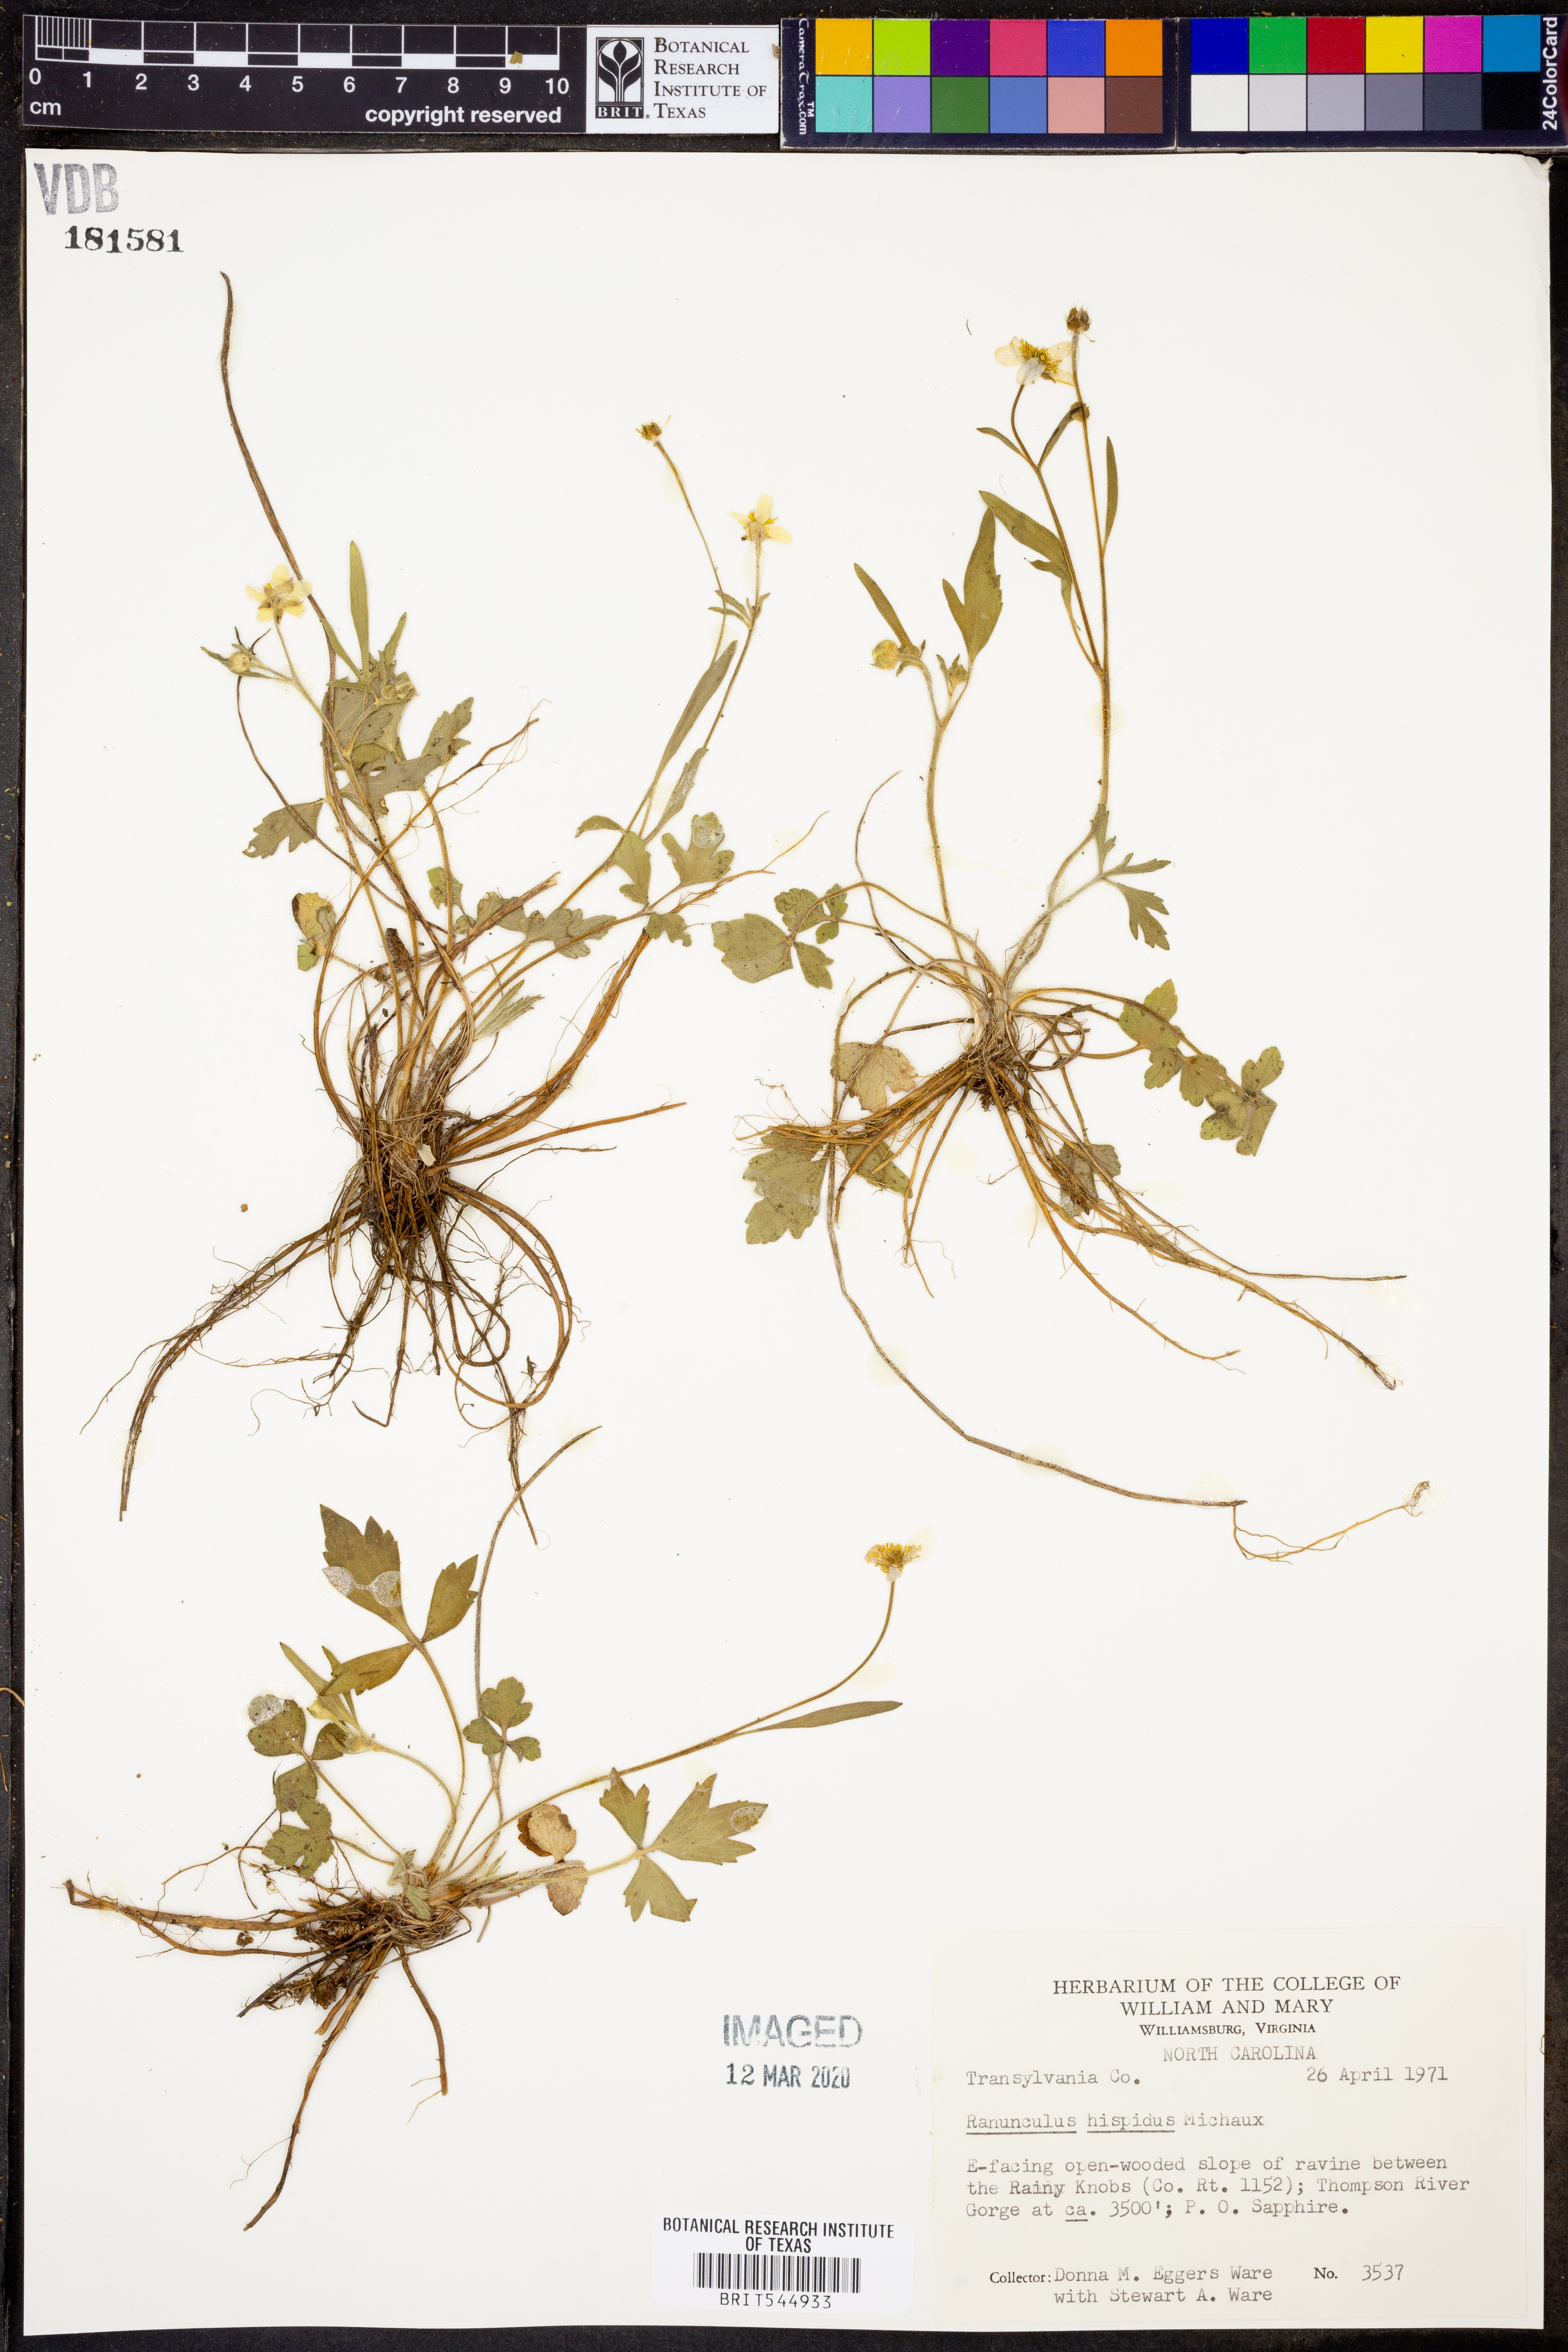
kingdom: Plantae
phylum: Tracheophyta
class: Magnoliopsida
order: Ranunculales
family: Ranunculaceae
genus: Ranunculus
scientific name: Ranunculus hispidus
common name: Bristly buttercup
